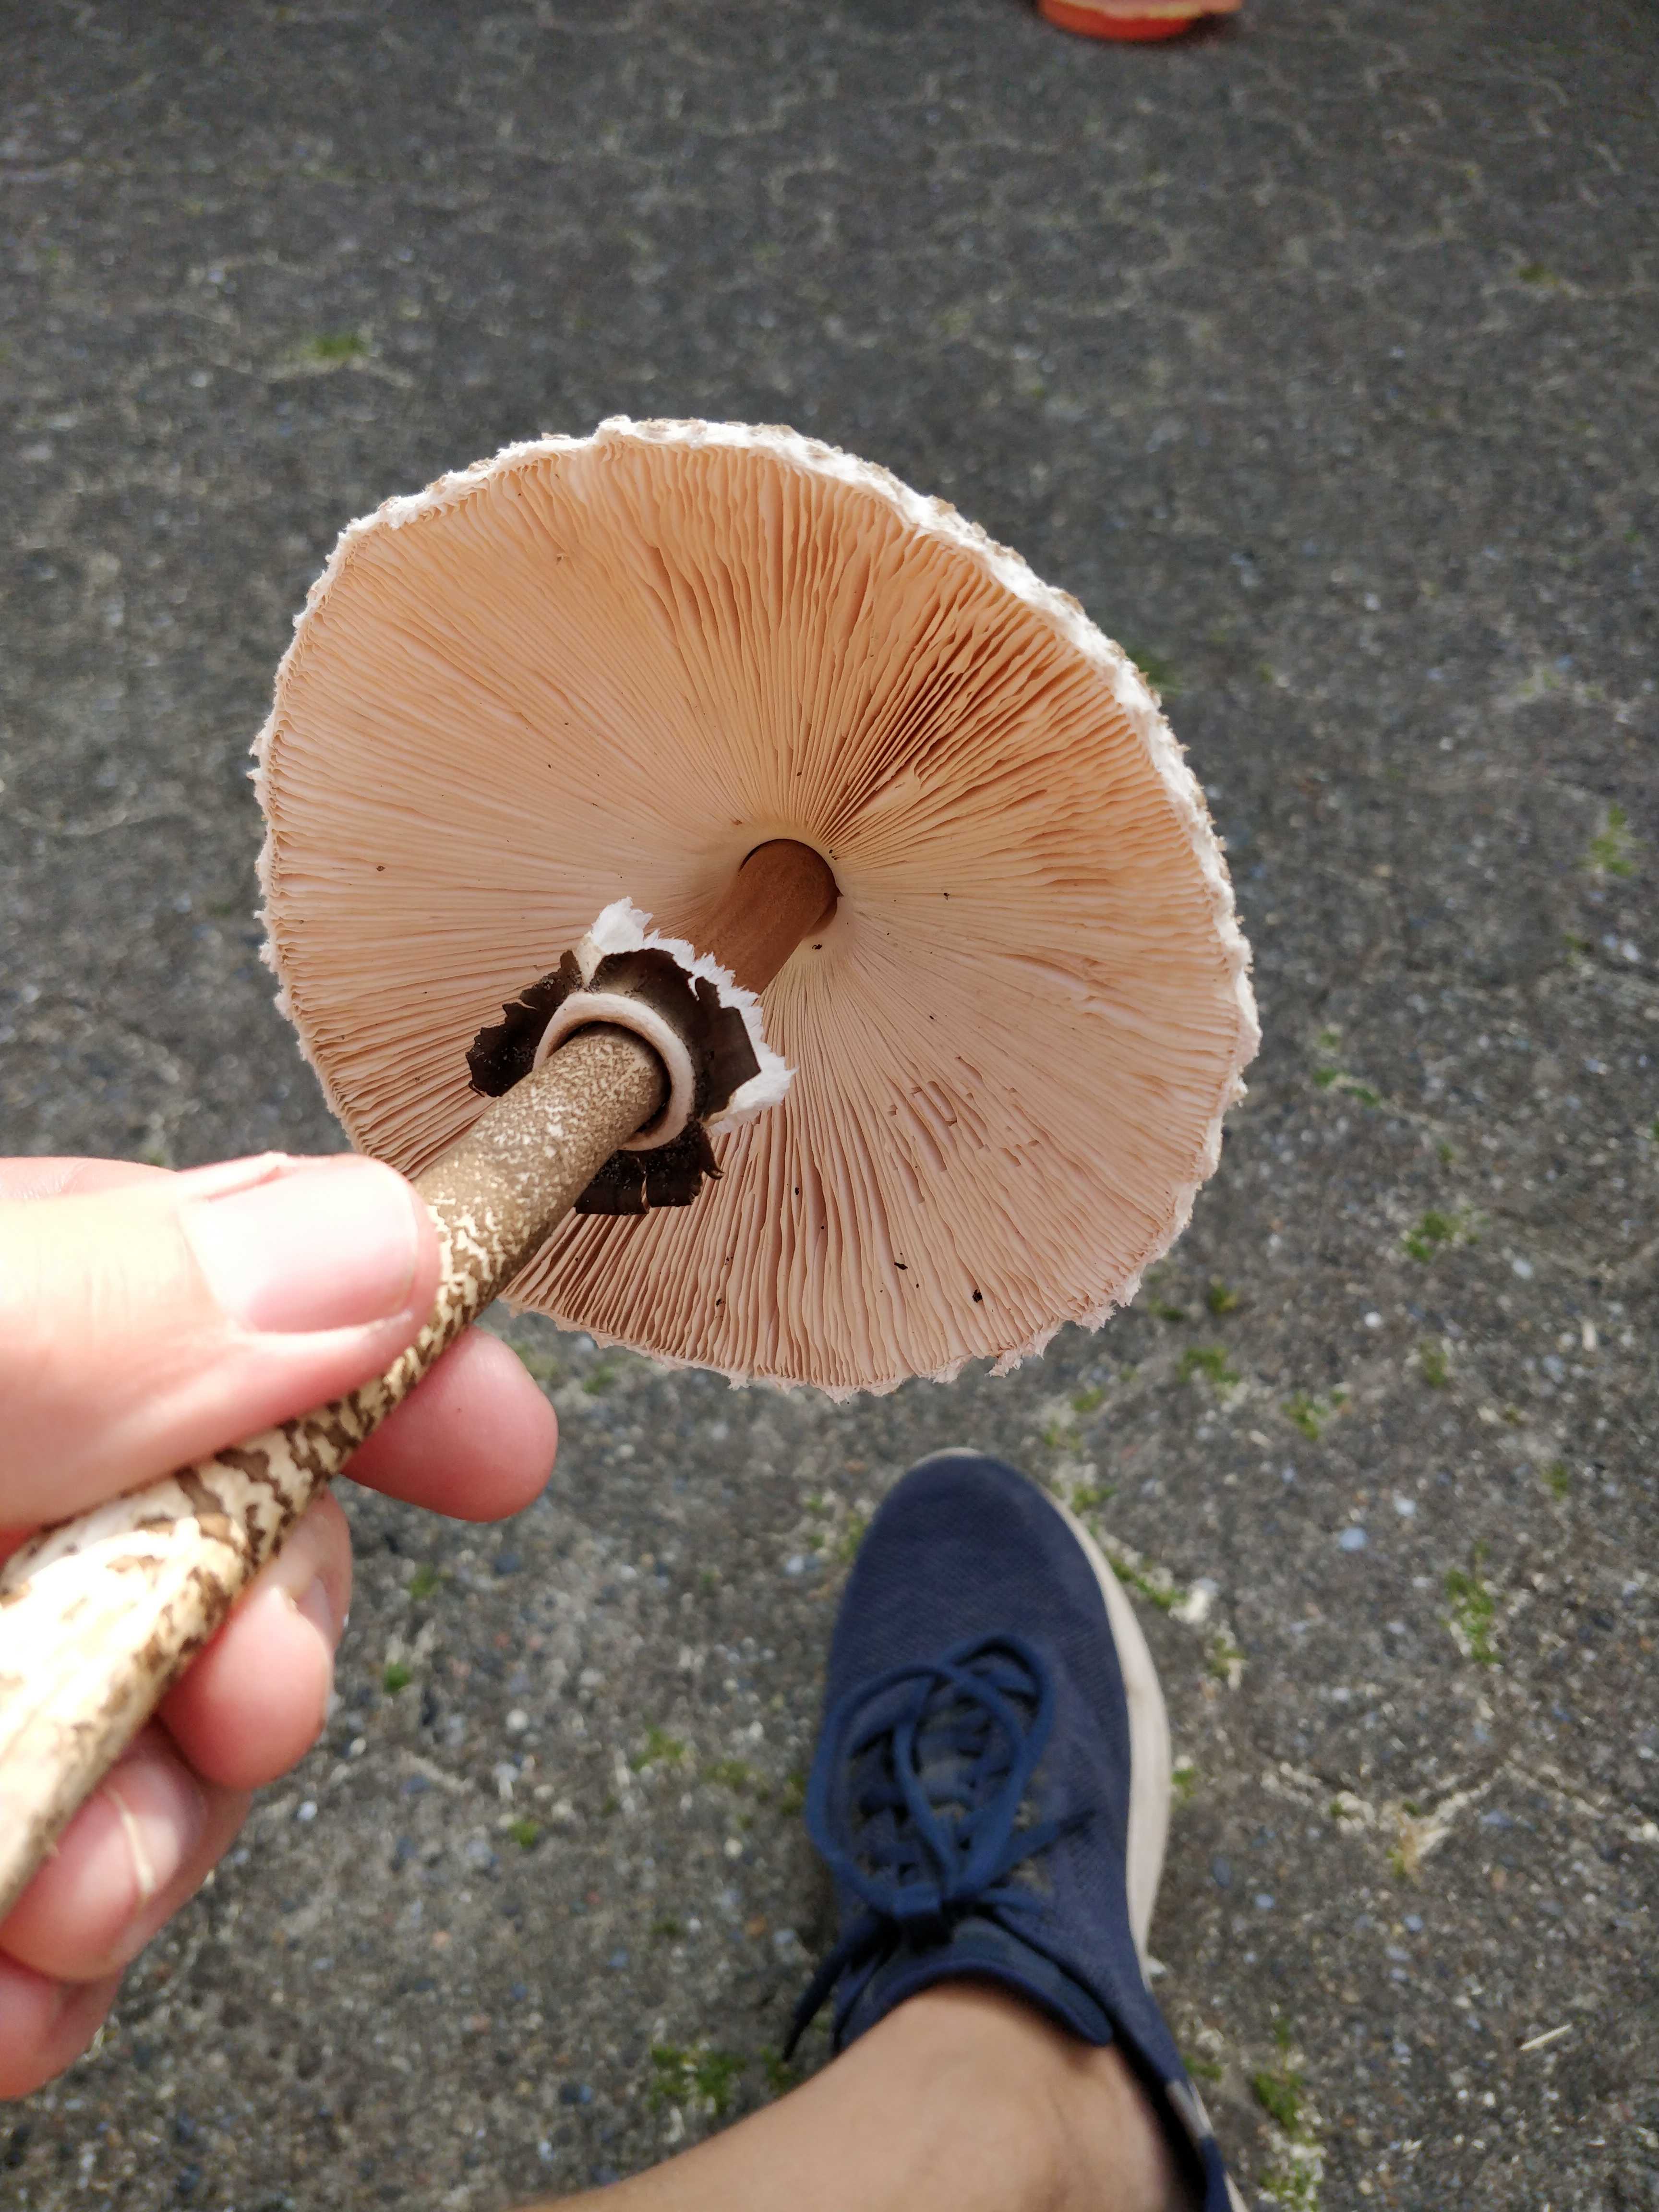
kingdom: Fungi
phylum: Basidiomycota
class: Agaricomycetes
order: Agaricales
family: Agaricaceae
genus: Macrolepiota
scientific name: Macrolepiota procera
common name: stor kæmpeparasolhat
